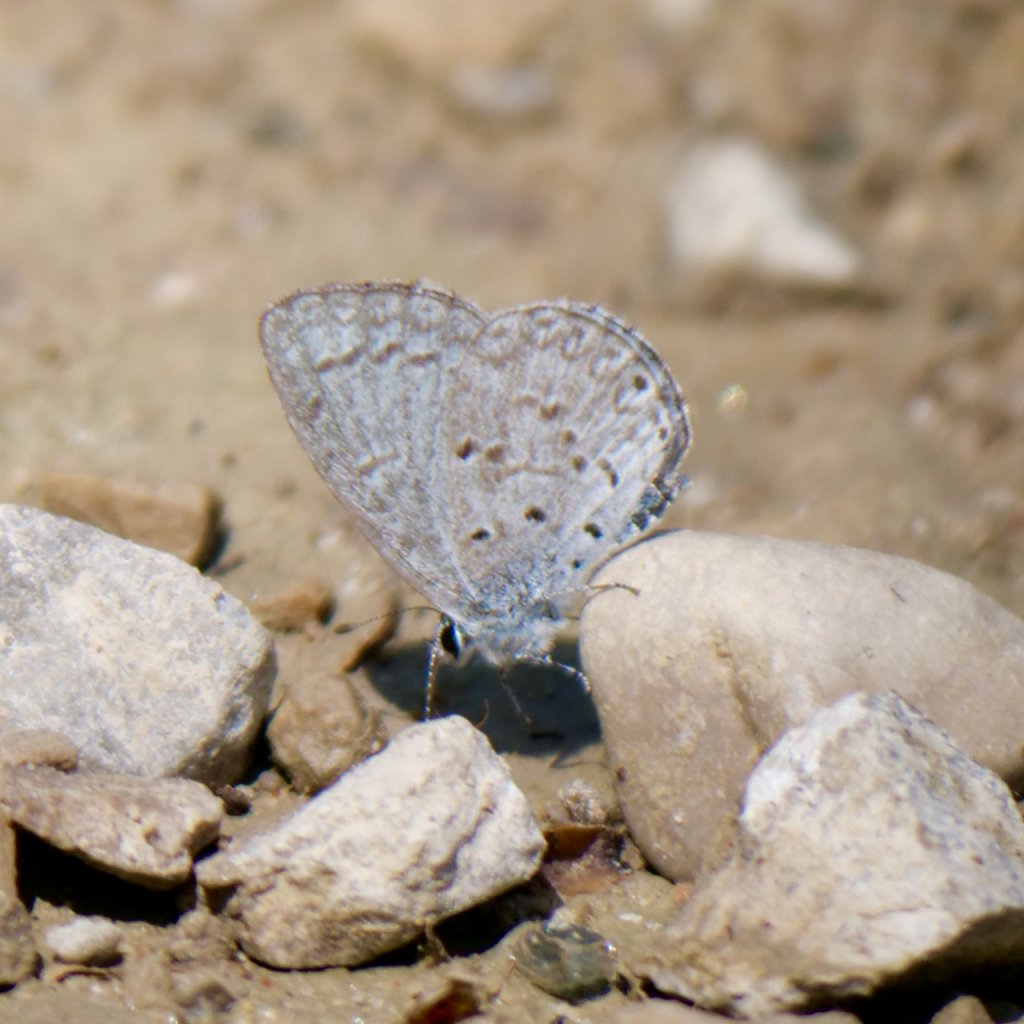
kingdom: Animalia
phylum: Arthropoda
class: Insecta
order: Lepidoptera
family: Lycaenidae
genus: Celastrina
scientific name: Celastrina lucia
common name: Northern Spring Azure
